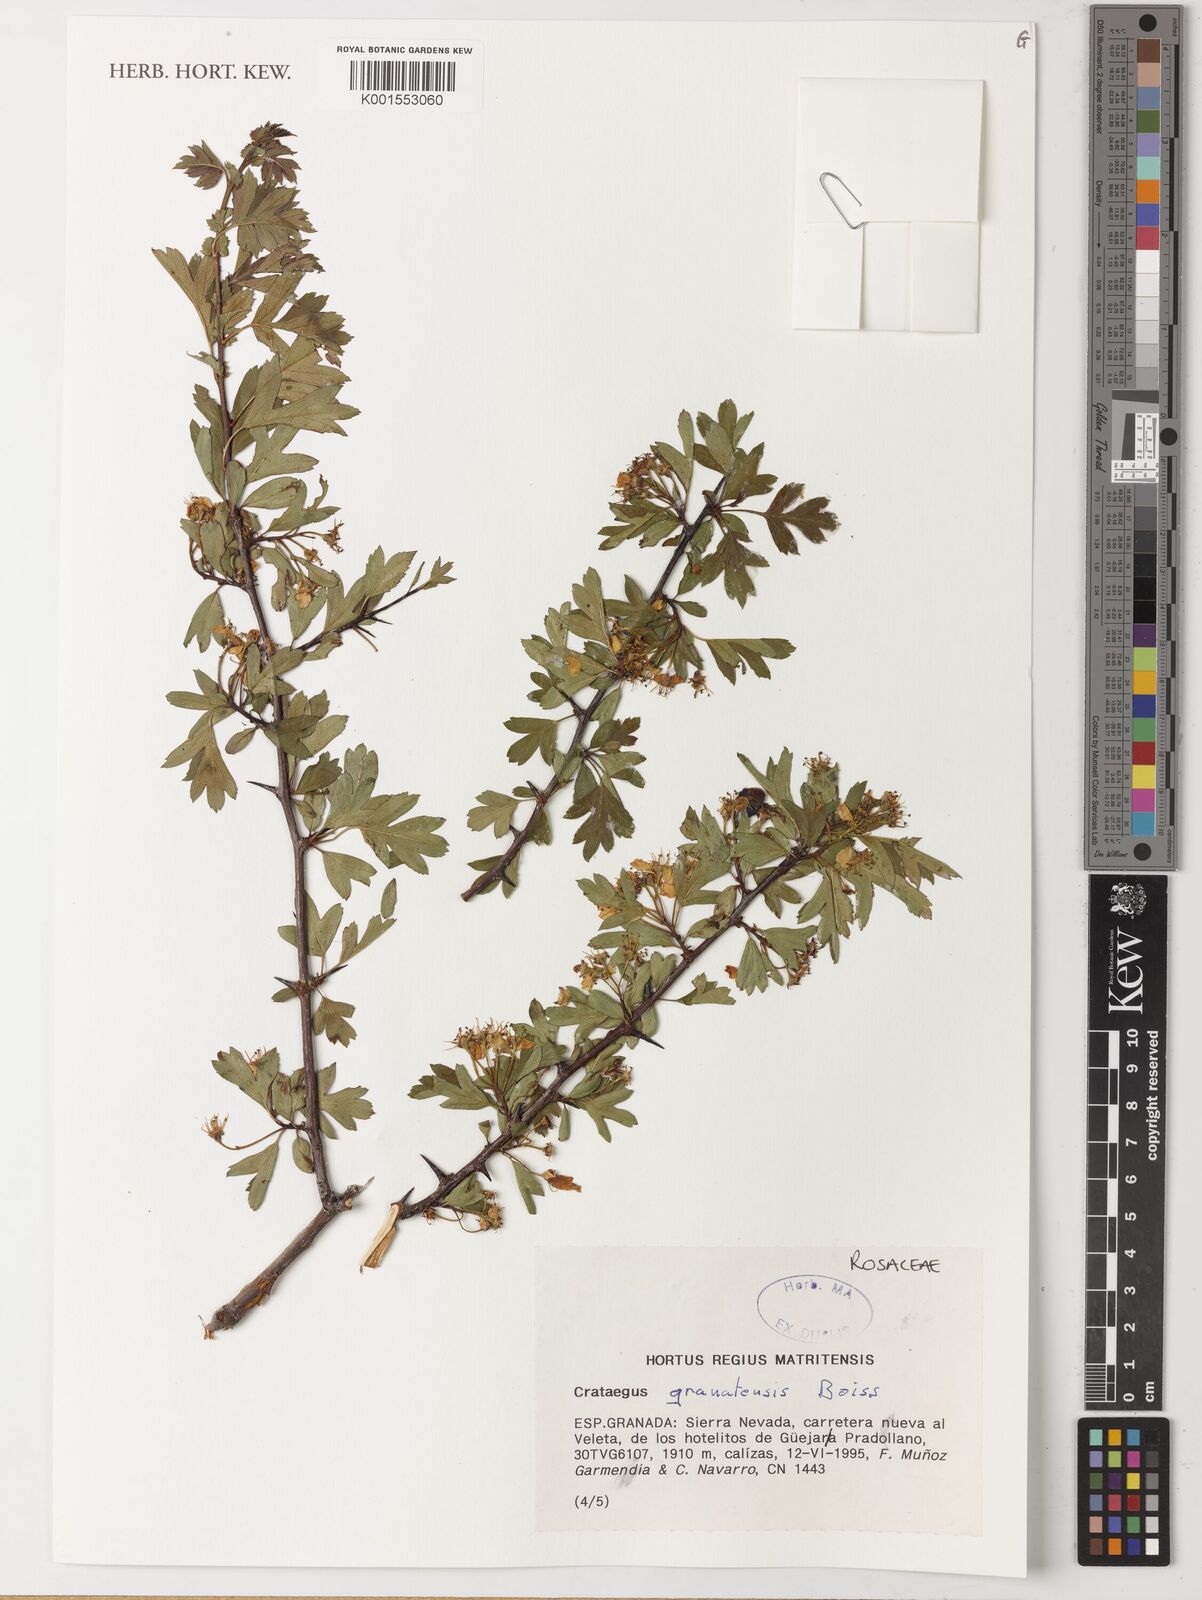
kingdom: Plantae
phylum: Tracheophyta
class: Magnoliopsida
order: Rosales
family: Rosaceae
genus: Crataegus
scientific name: Crataegus granatensis
